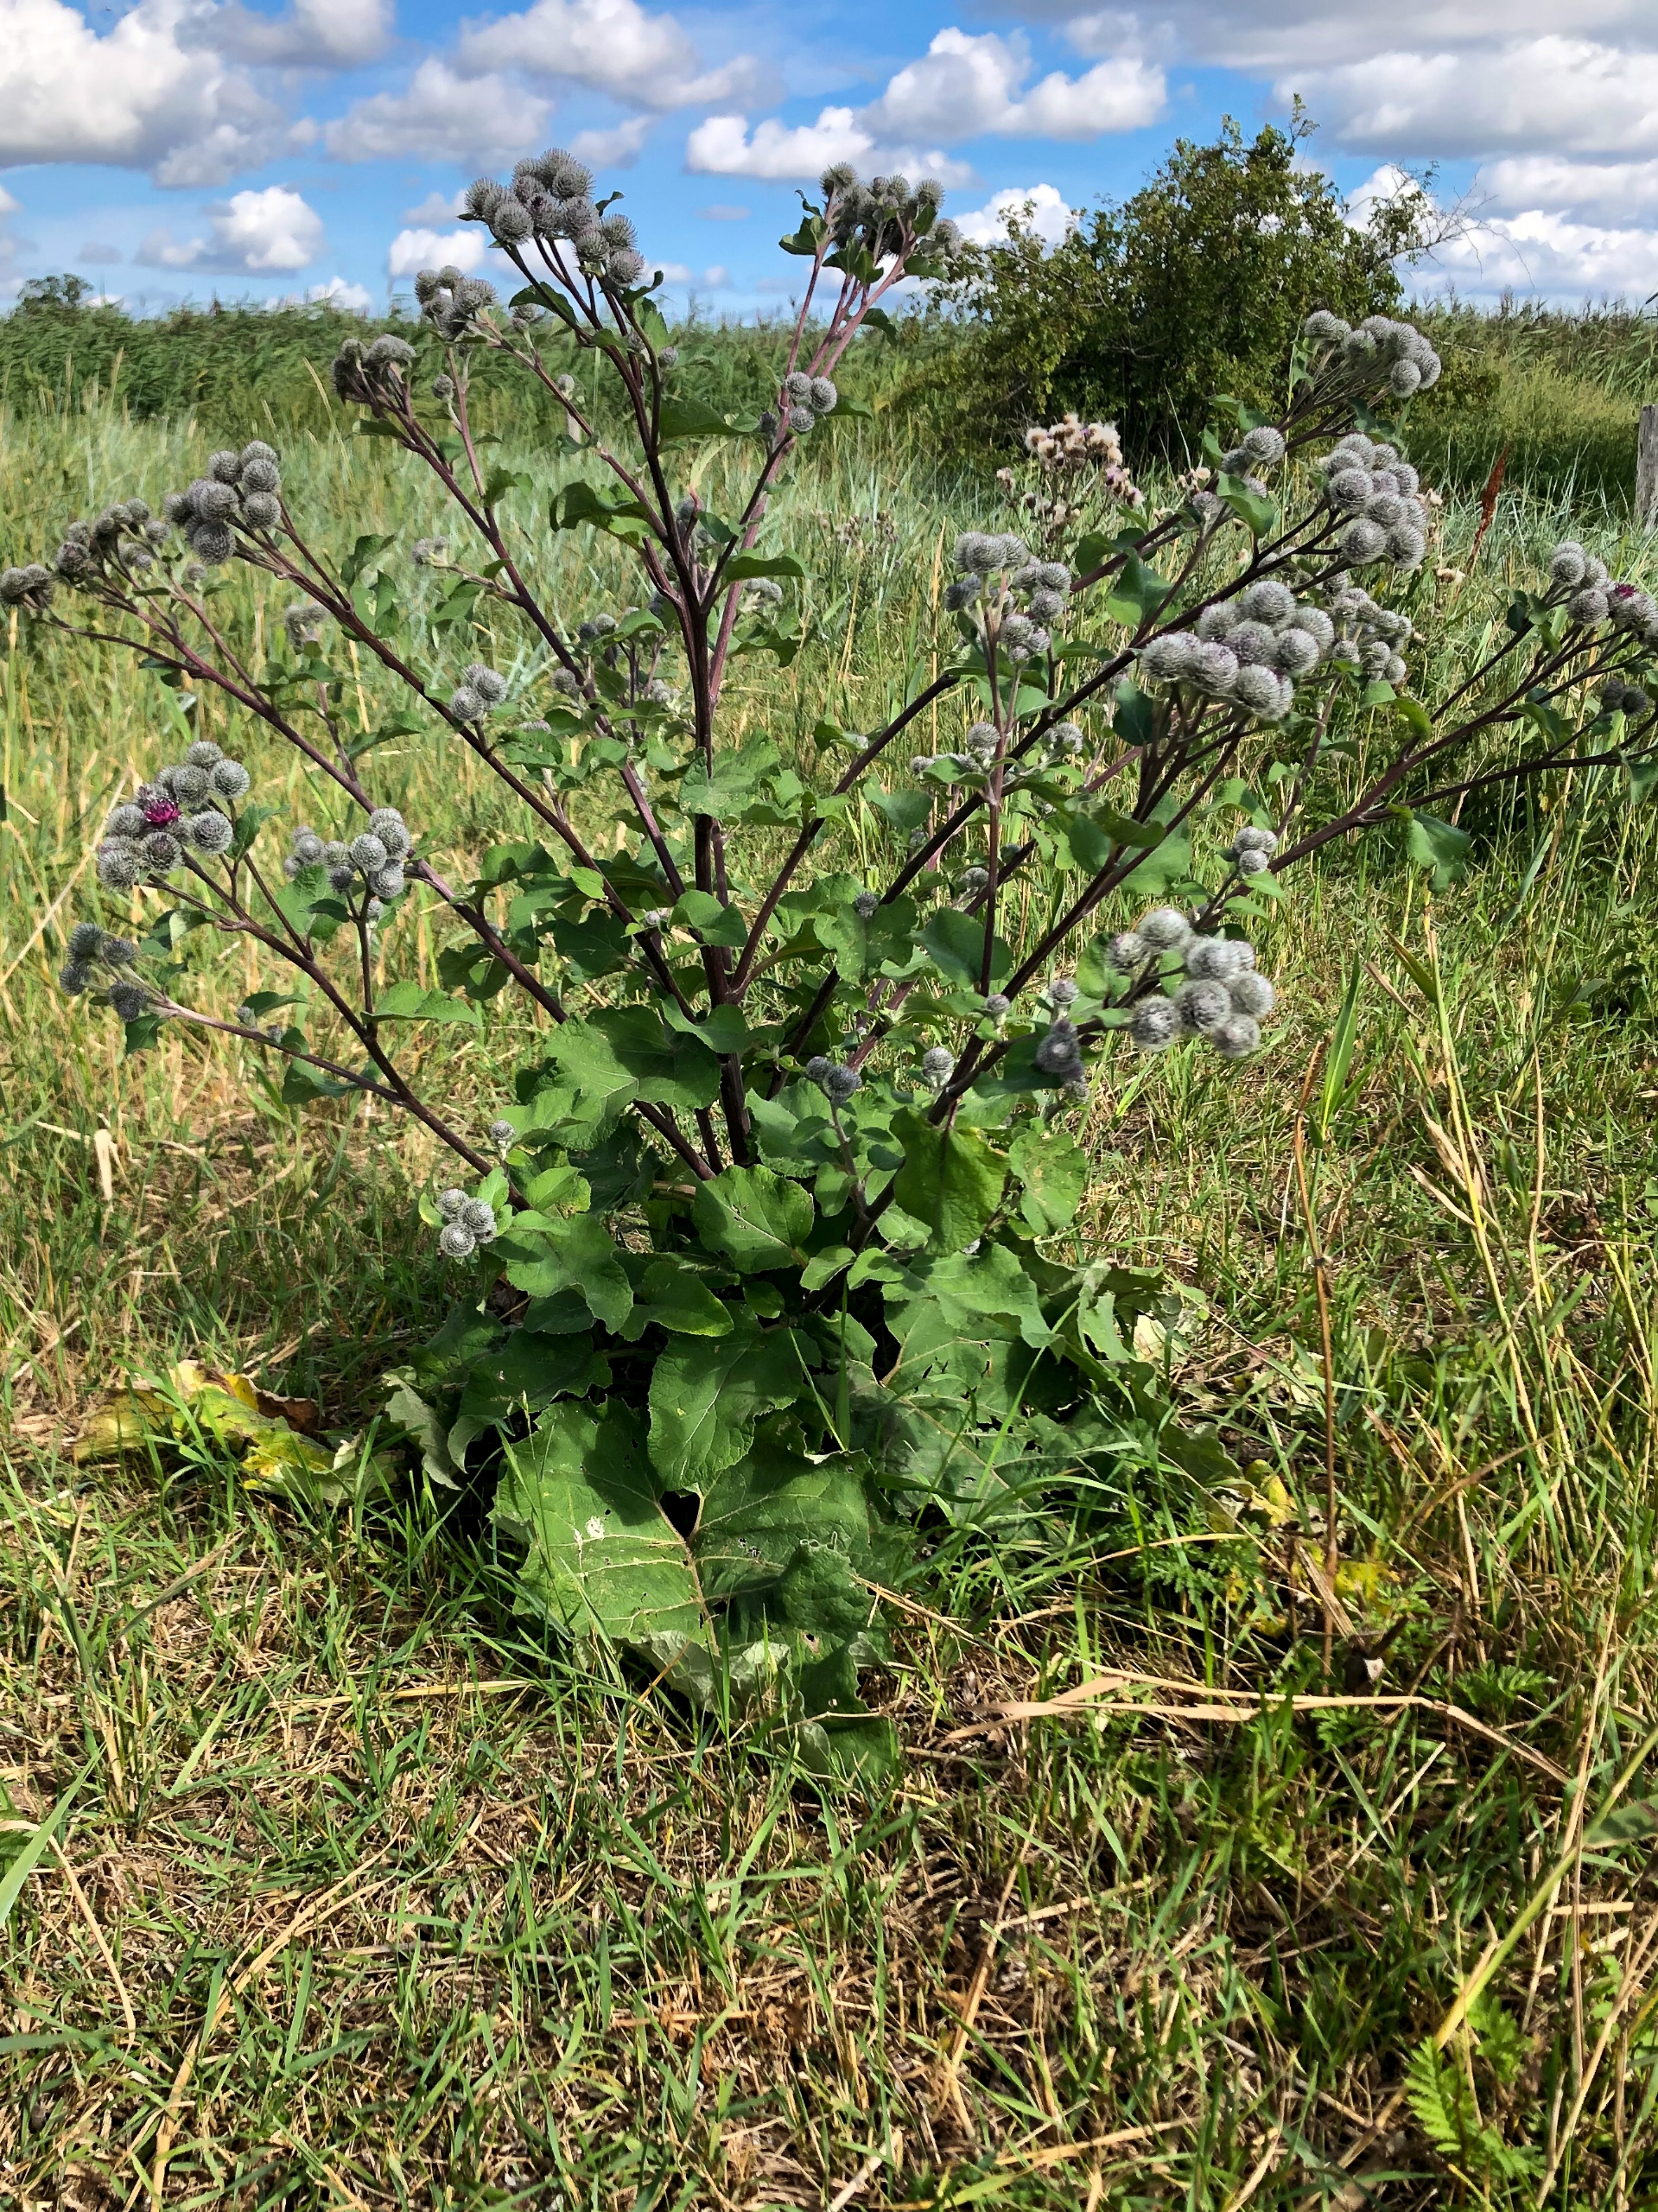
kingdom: Plantae
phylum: Tracheophyta
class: Magnoliopsida
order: Asterales
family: Asteraceae
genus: Arctium
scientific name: Arctium tomentosum
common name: Filtet burre
